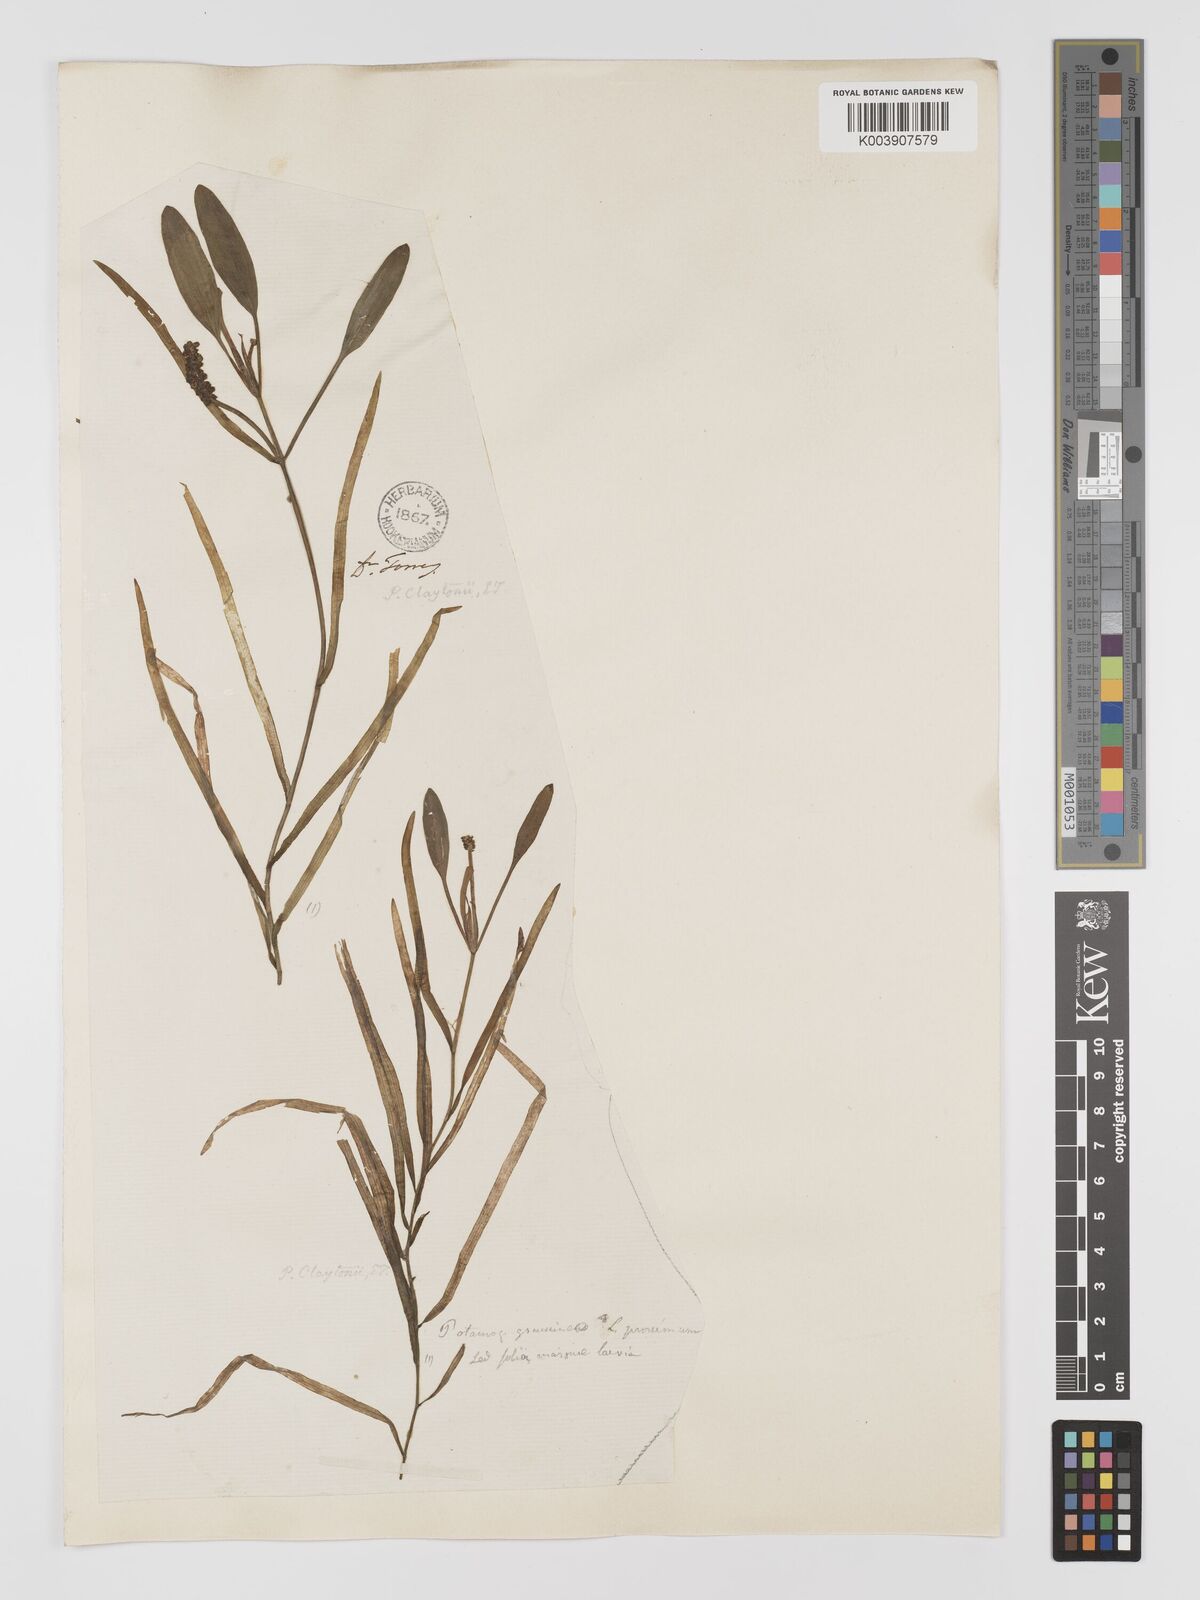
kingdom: Plantae
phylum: Tracheophyta
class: Liliopsida
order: Alismatales
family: Potamogetonaceae
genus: Potamogeton
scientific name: Potamogeton epihydrus
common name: American pondweed
